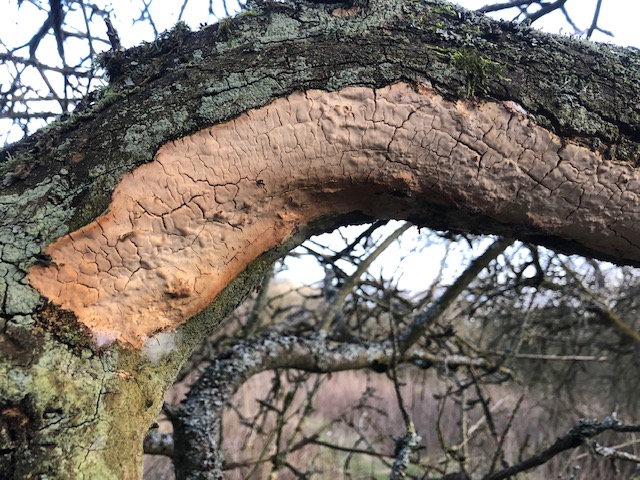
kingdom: Fungi
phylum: Basidiomycota
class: Agaricomycetes
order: Russulales
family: Stereaceae
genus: Stereum
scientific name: Stereum rugosum
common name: rynket lædersvamp
